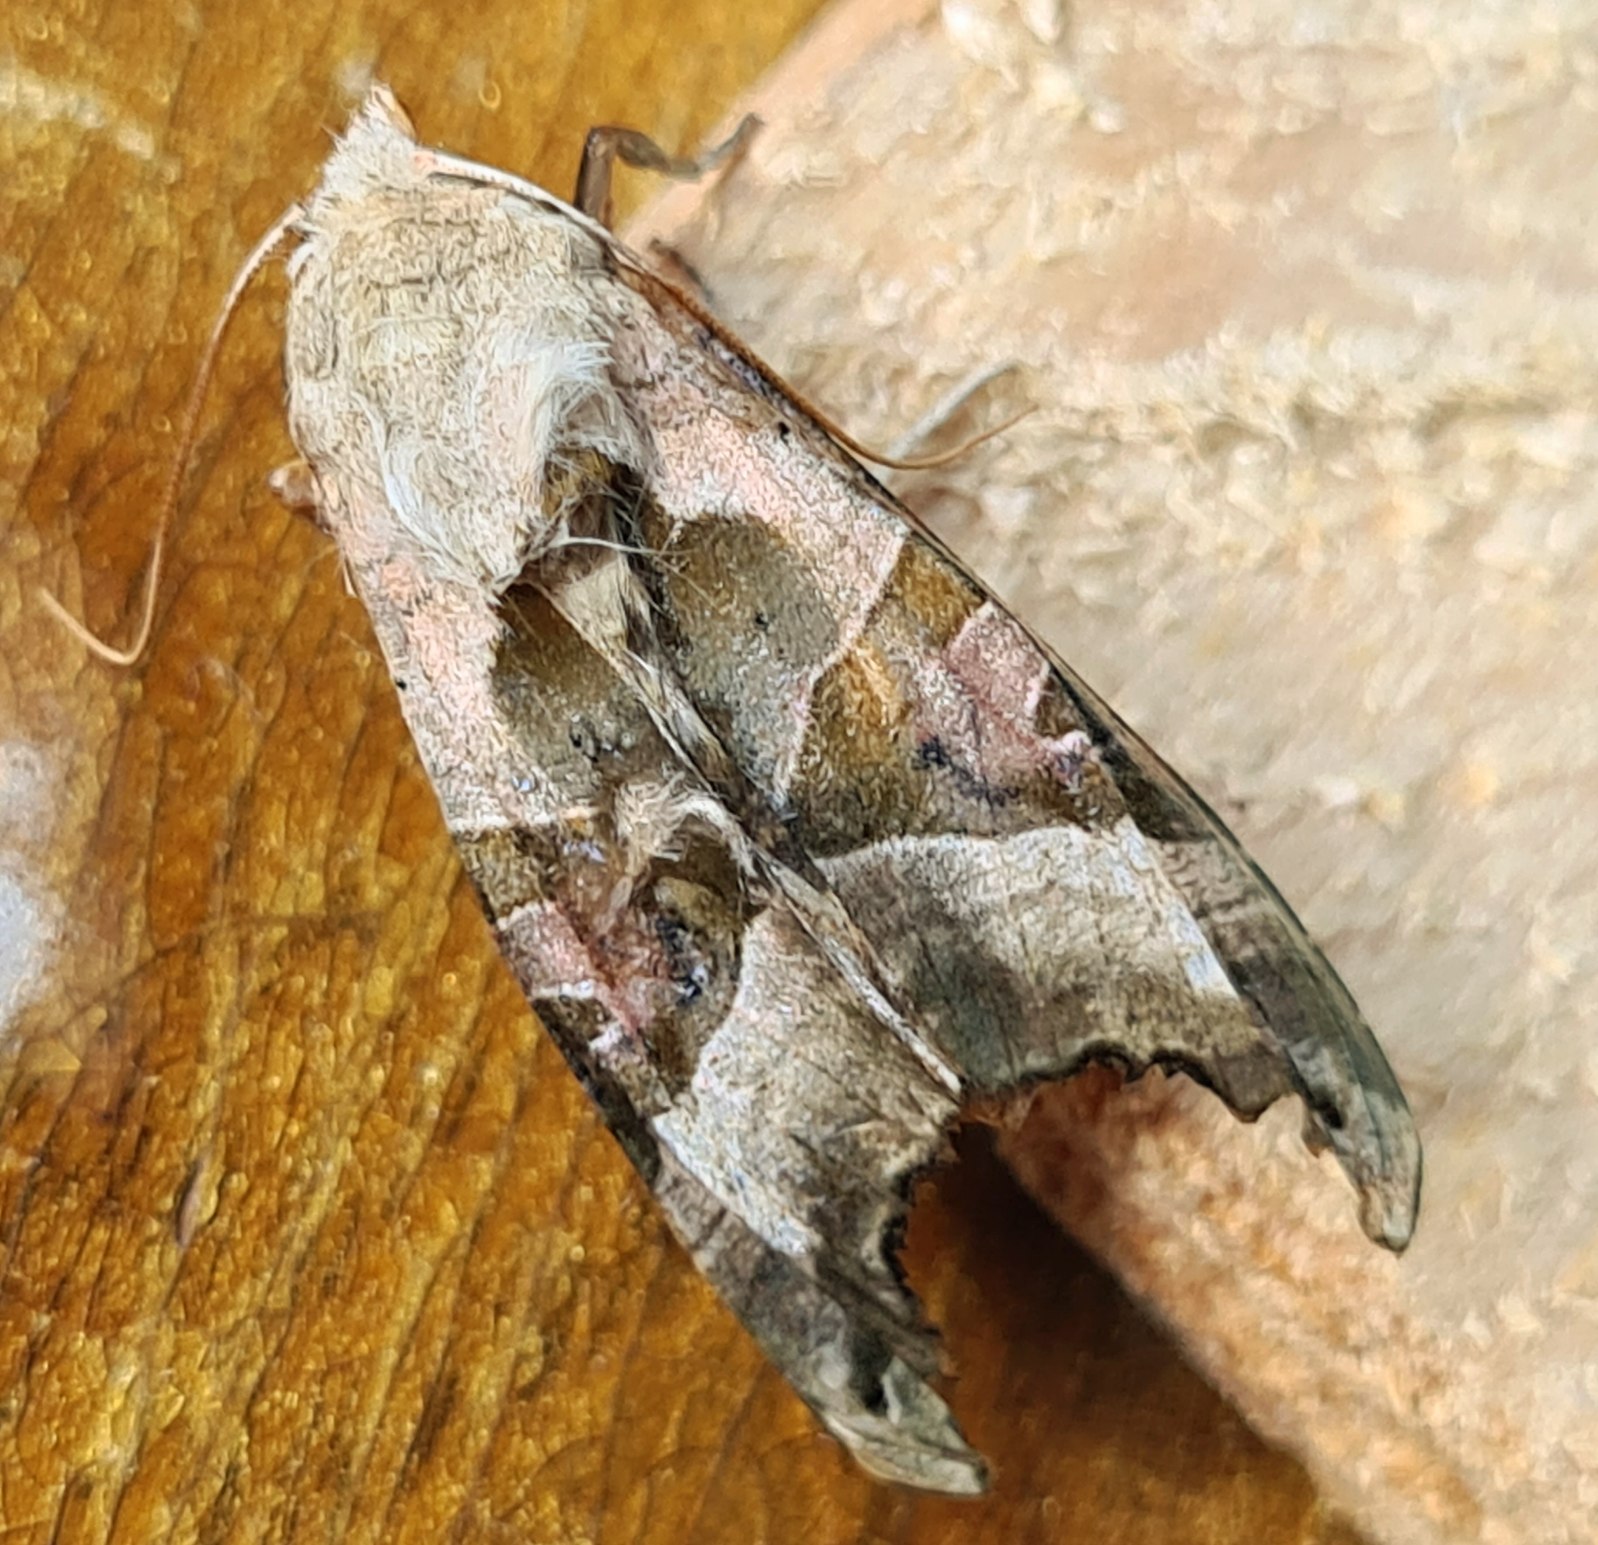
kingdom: Animalia
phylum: Arthropoda
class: Insecta
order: Lepidoptera
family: Noctuidae
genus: Phlogophora
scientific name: Phlogophora meticulosa
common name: Agatugle
